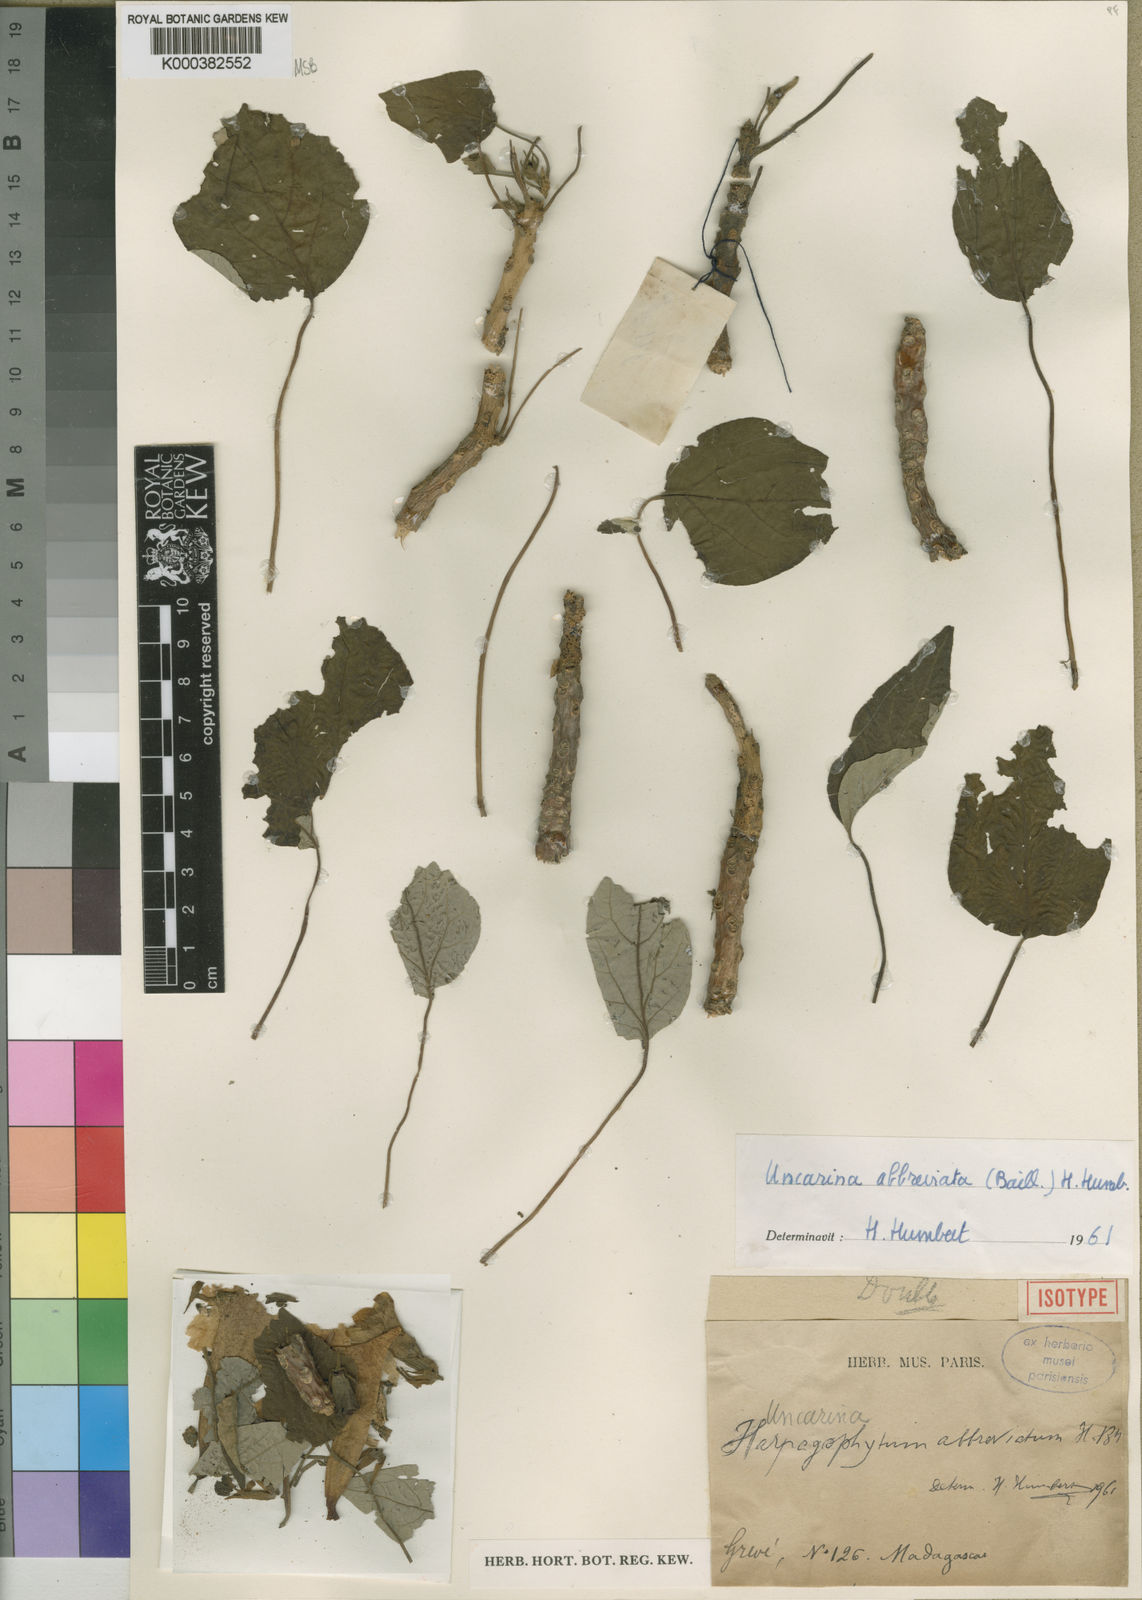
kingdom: Plantae
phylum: Tracheophyta
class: Magnoliopsida
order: Lamiales
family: Pedaliaceae
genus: Uncarina
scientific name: Uncarina abbreviata
